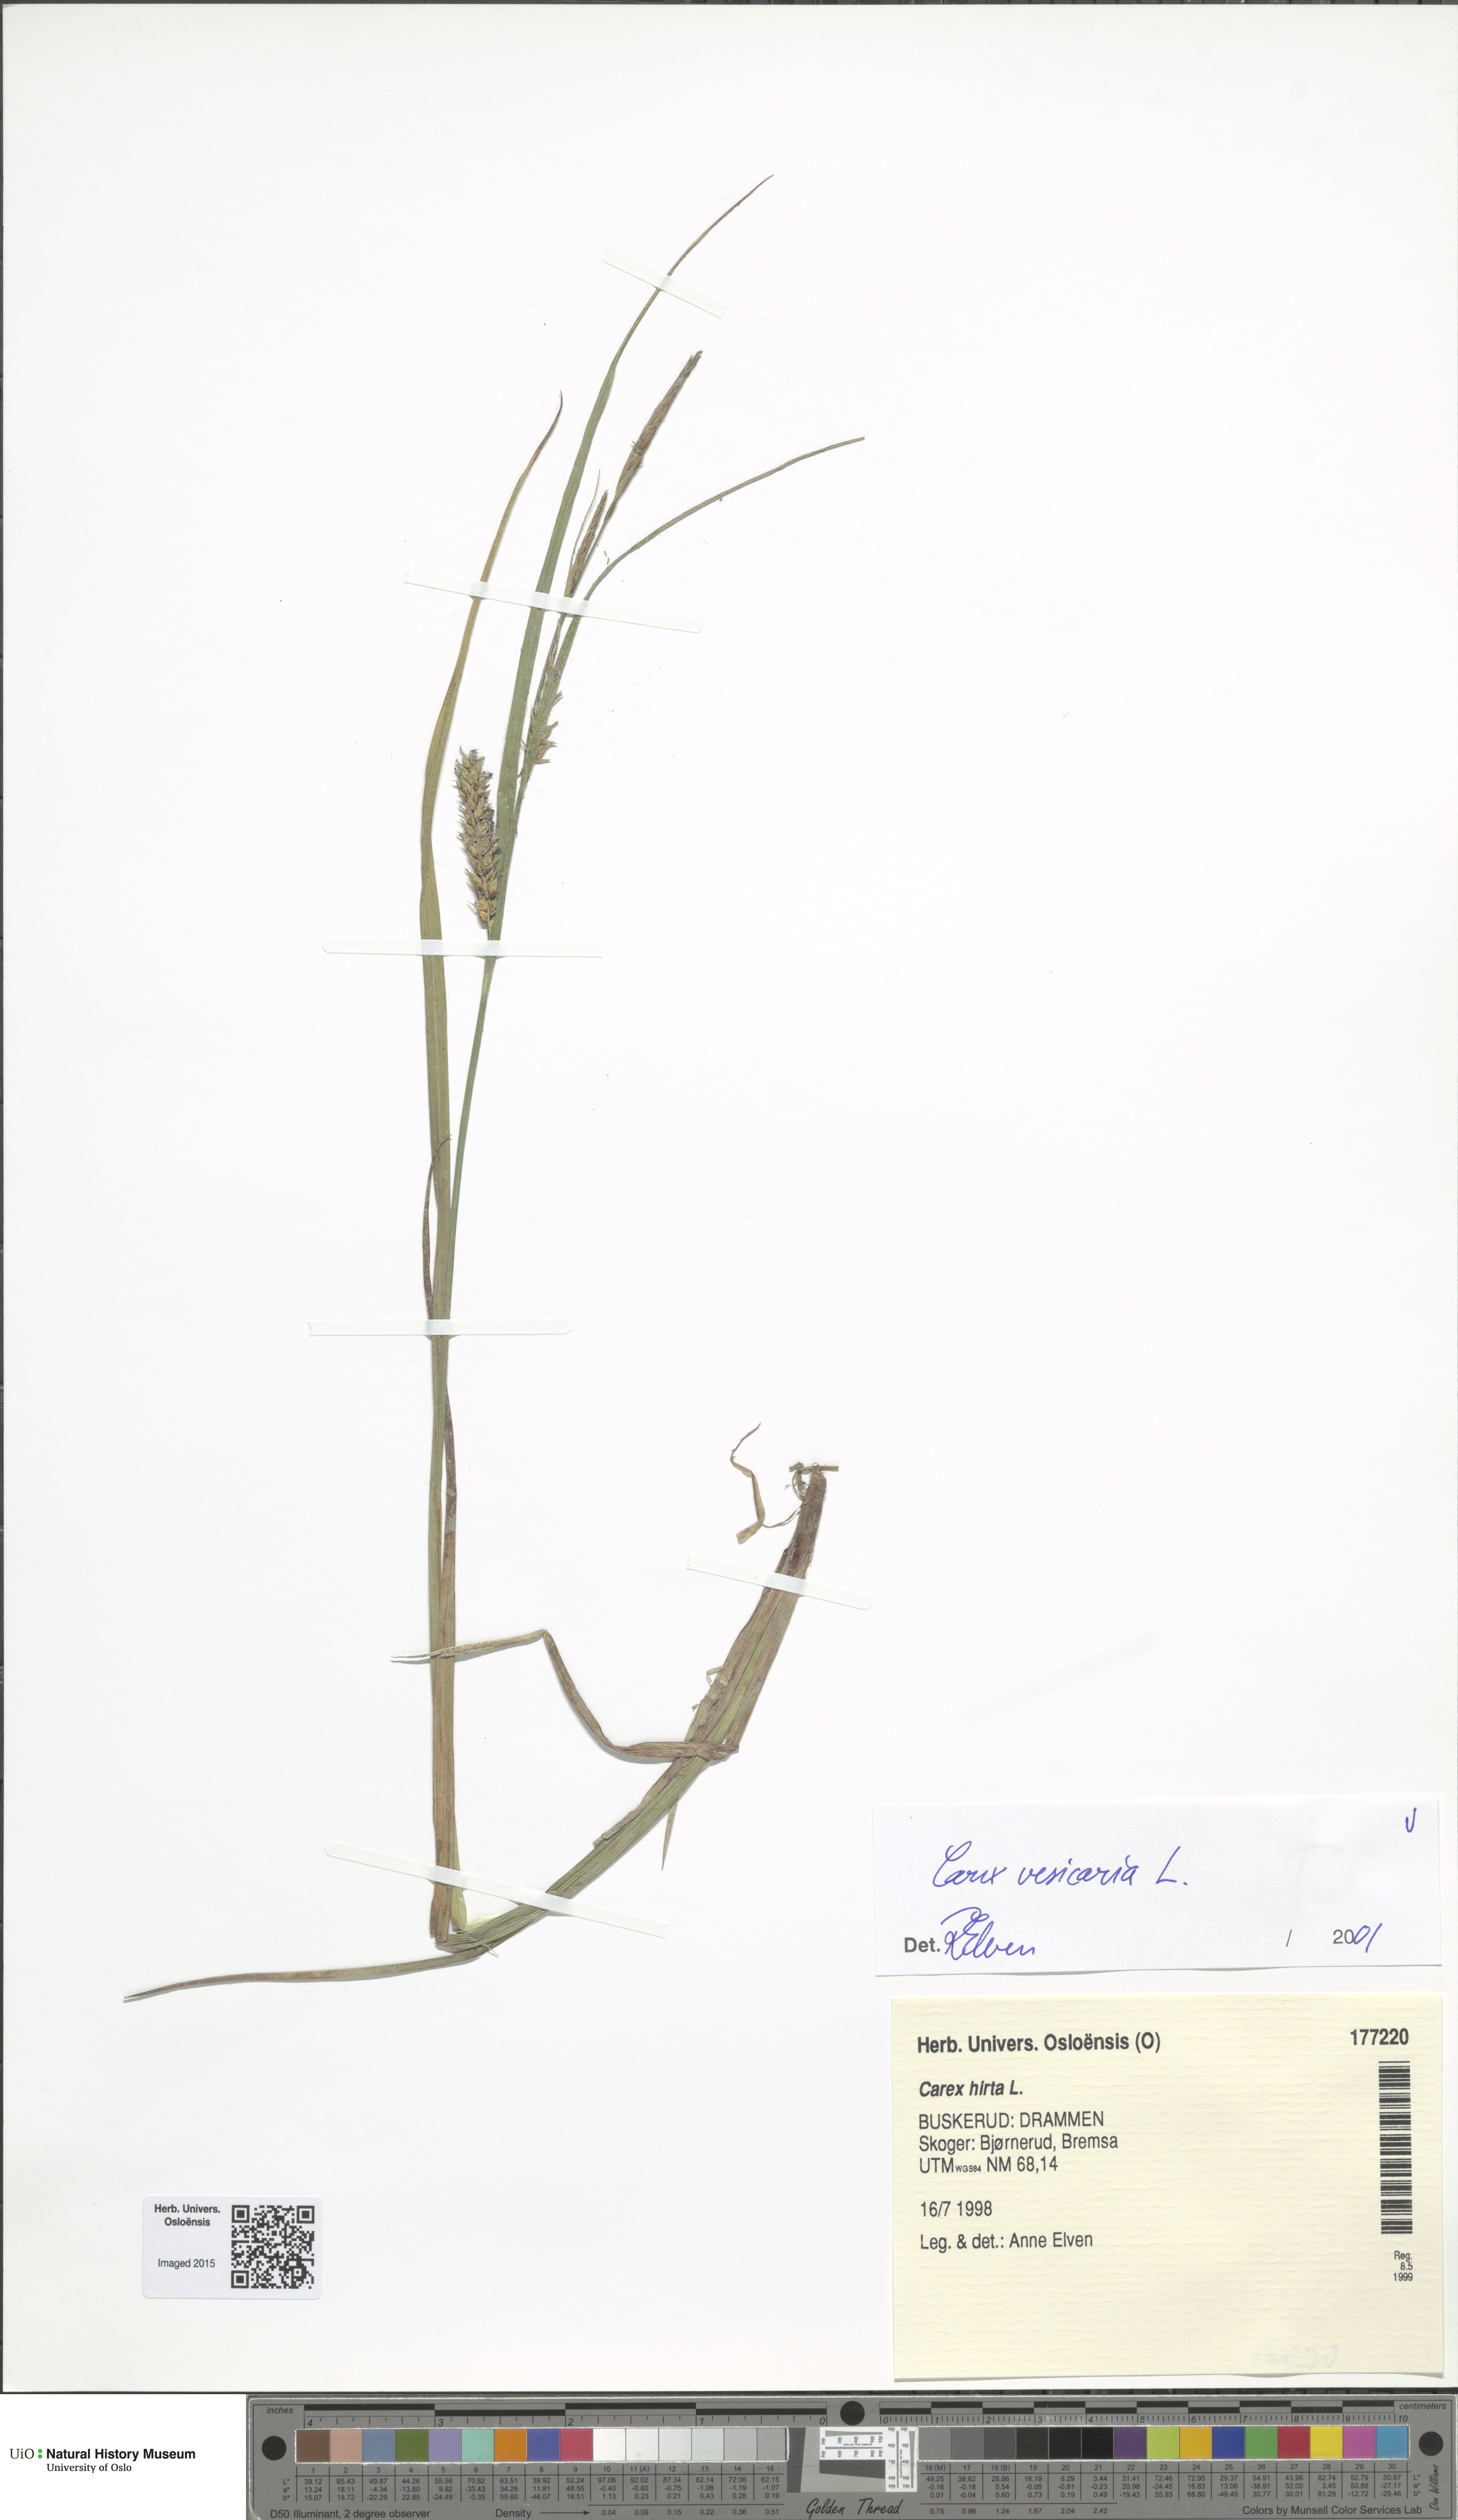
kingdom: Plantae
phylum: Tracheophyta
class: Liliopsida
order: Poales
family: Cyperaceae
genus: Carex
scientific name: Carex vesicaria
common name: Bladder-sedge
